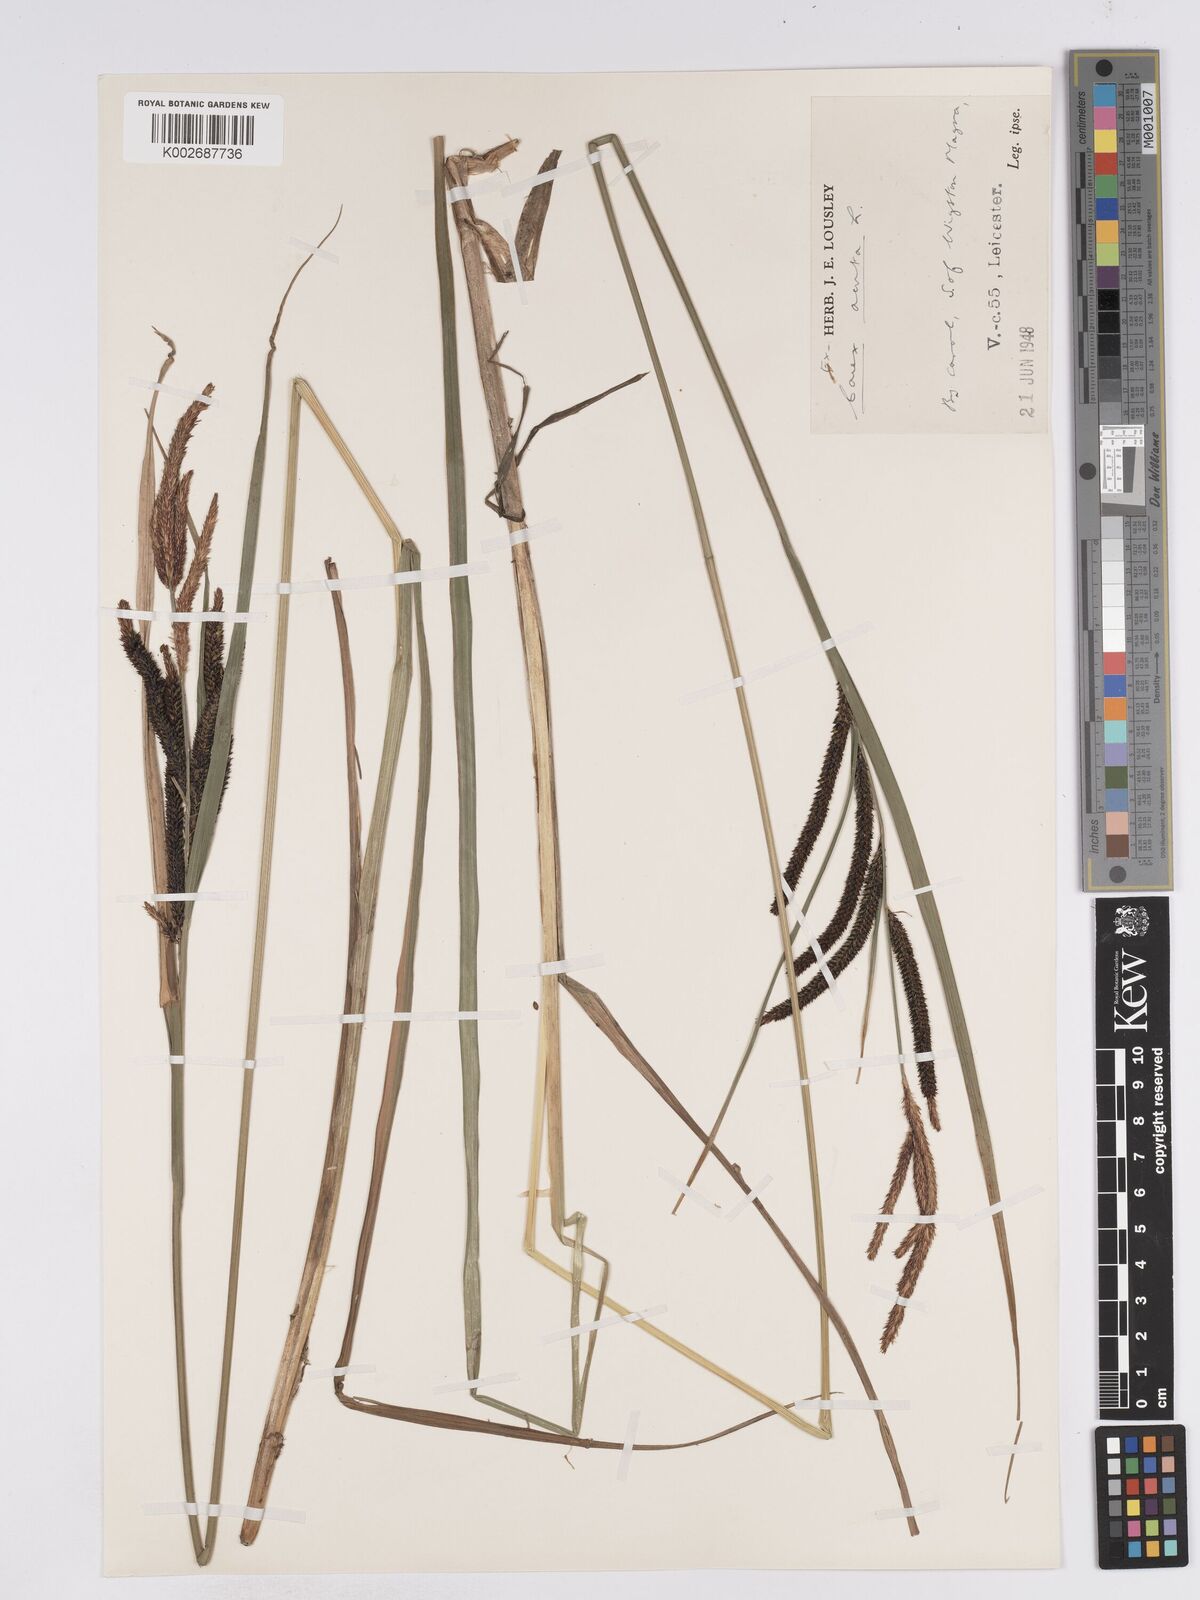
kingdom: Plantae
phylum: Tracheophyta
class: Liliopsida
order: Poales
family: Cyperaceae
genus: Carex
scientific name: Carex acuta
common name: Slender tufted-sedge
